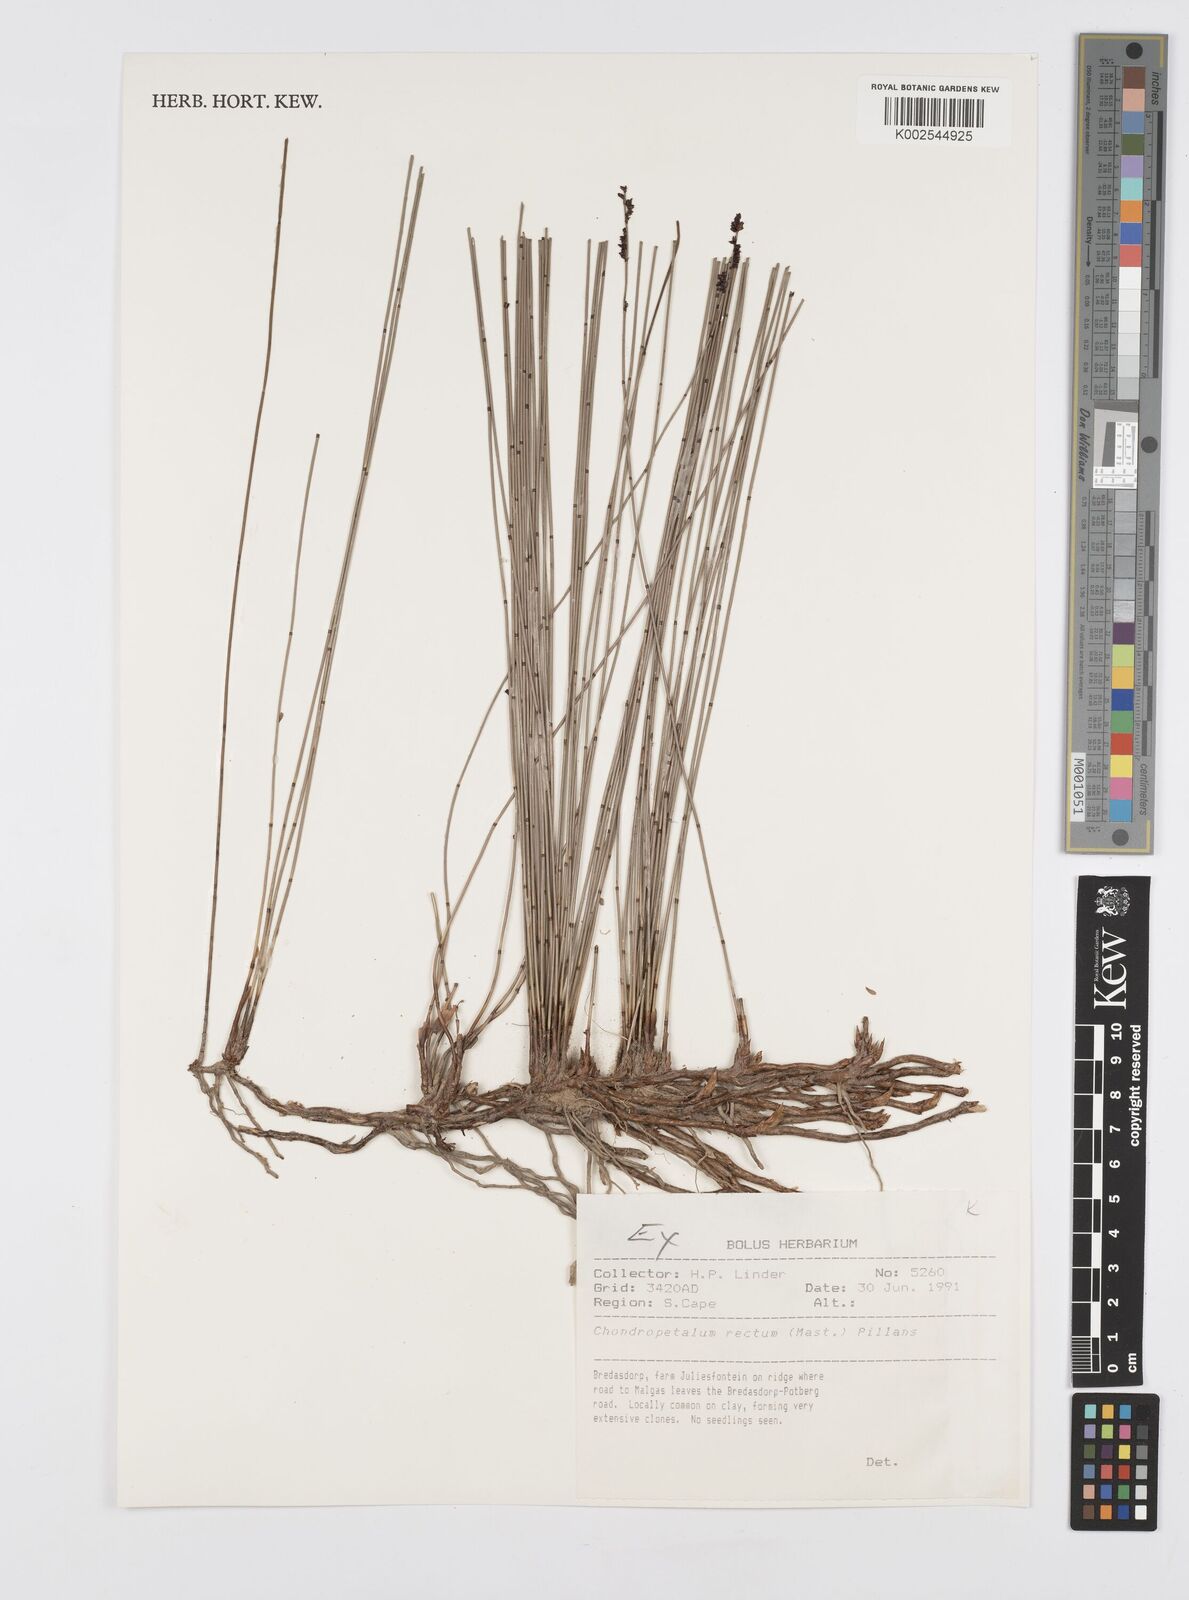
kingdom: Plantae
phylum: Tracheophyta
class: Liliopsida
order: Poales
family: Restionaceae
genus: Elegia
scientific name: Elegia recta
